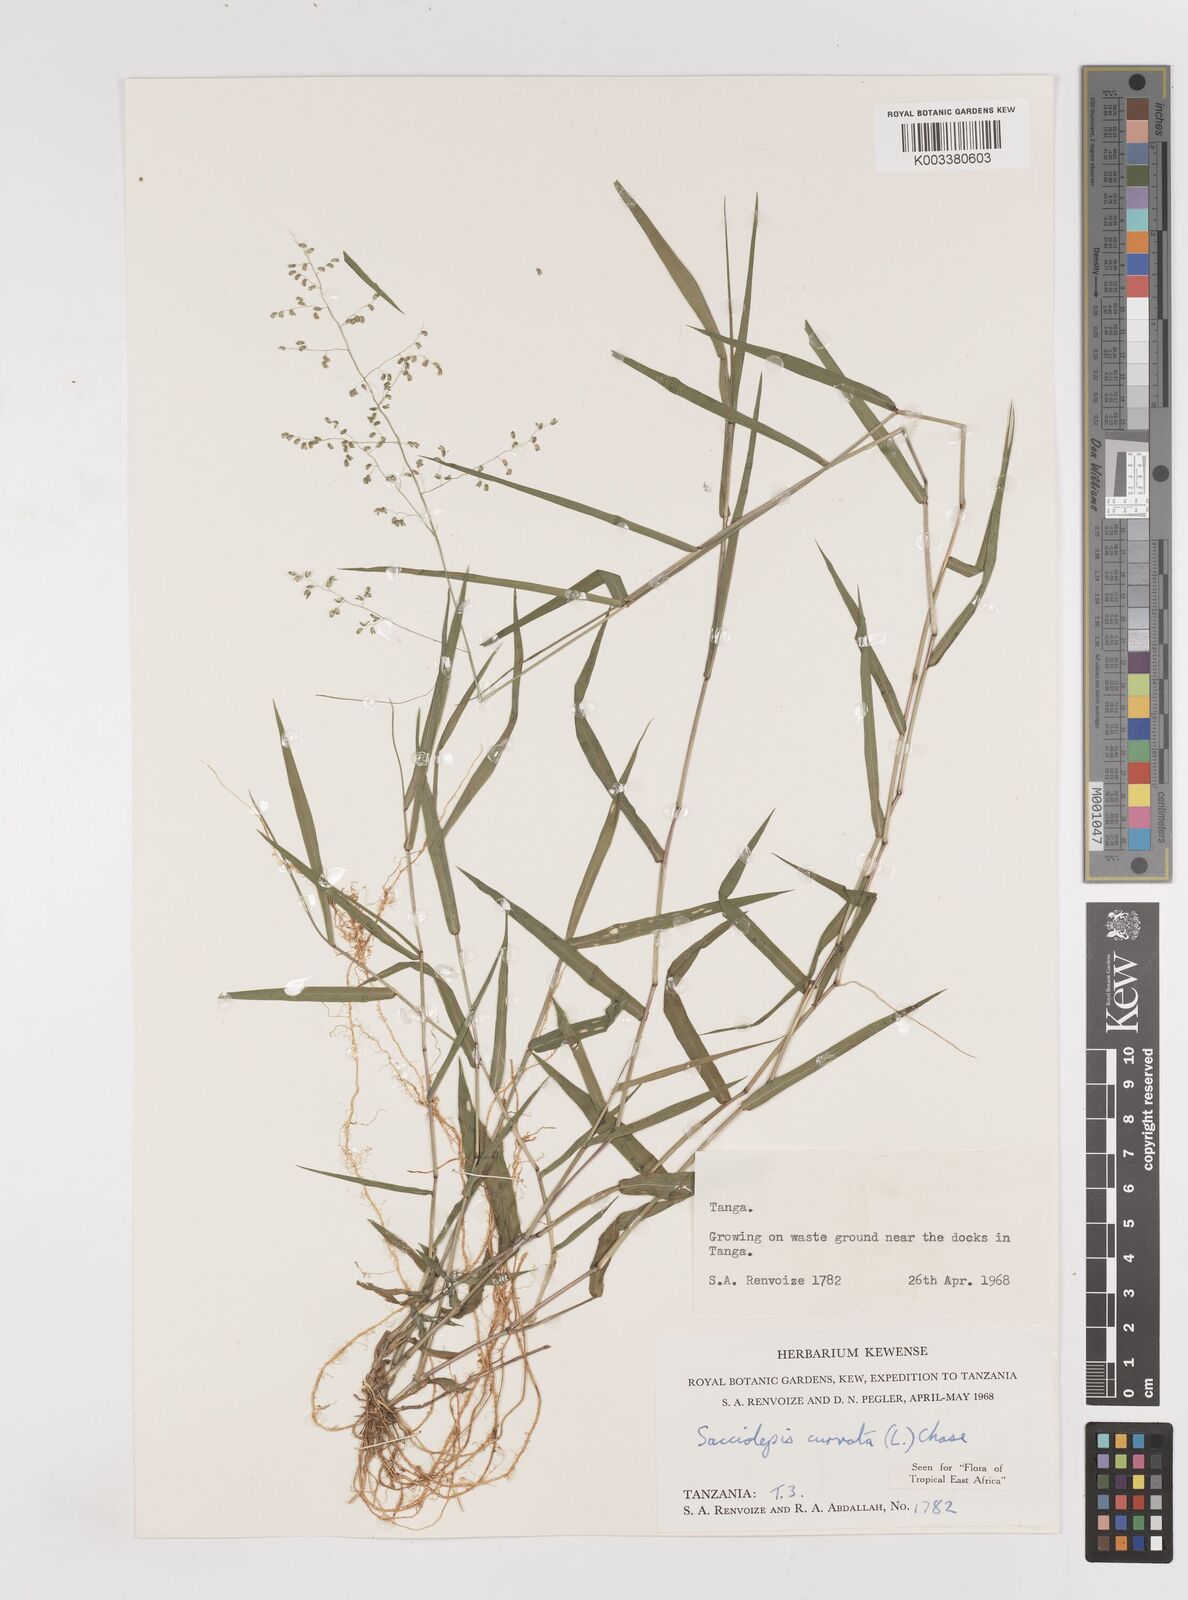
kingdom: Plantae
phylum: Tracheophyta
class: Liliopsida
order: Poales
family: Poaceae
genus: Sacciolepis
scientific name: Sacciolepis curvata
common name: Forest hood grass
